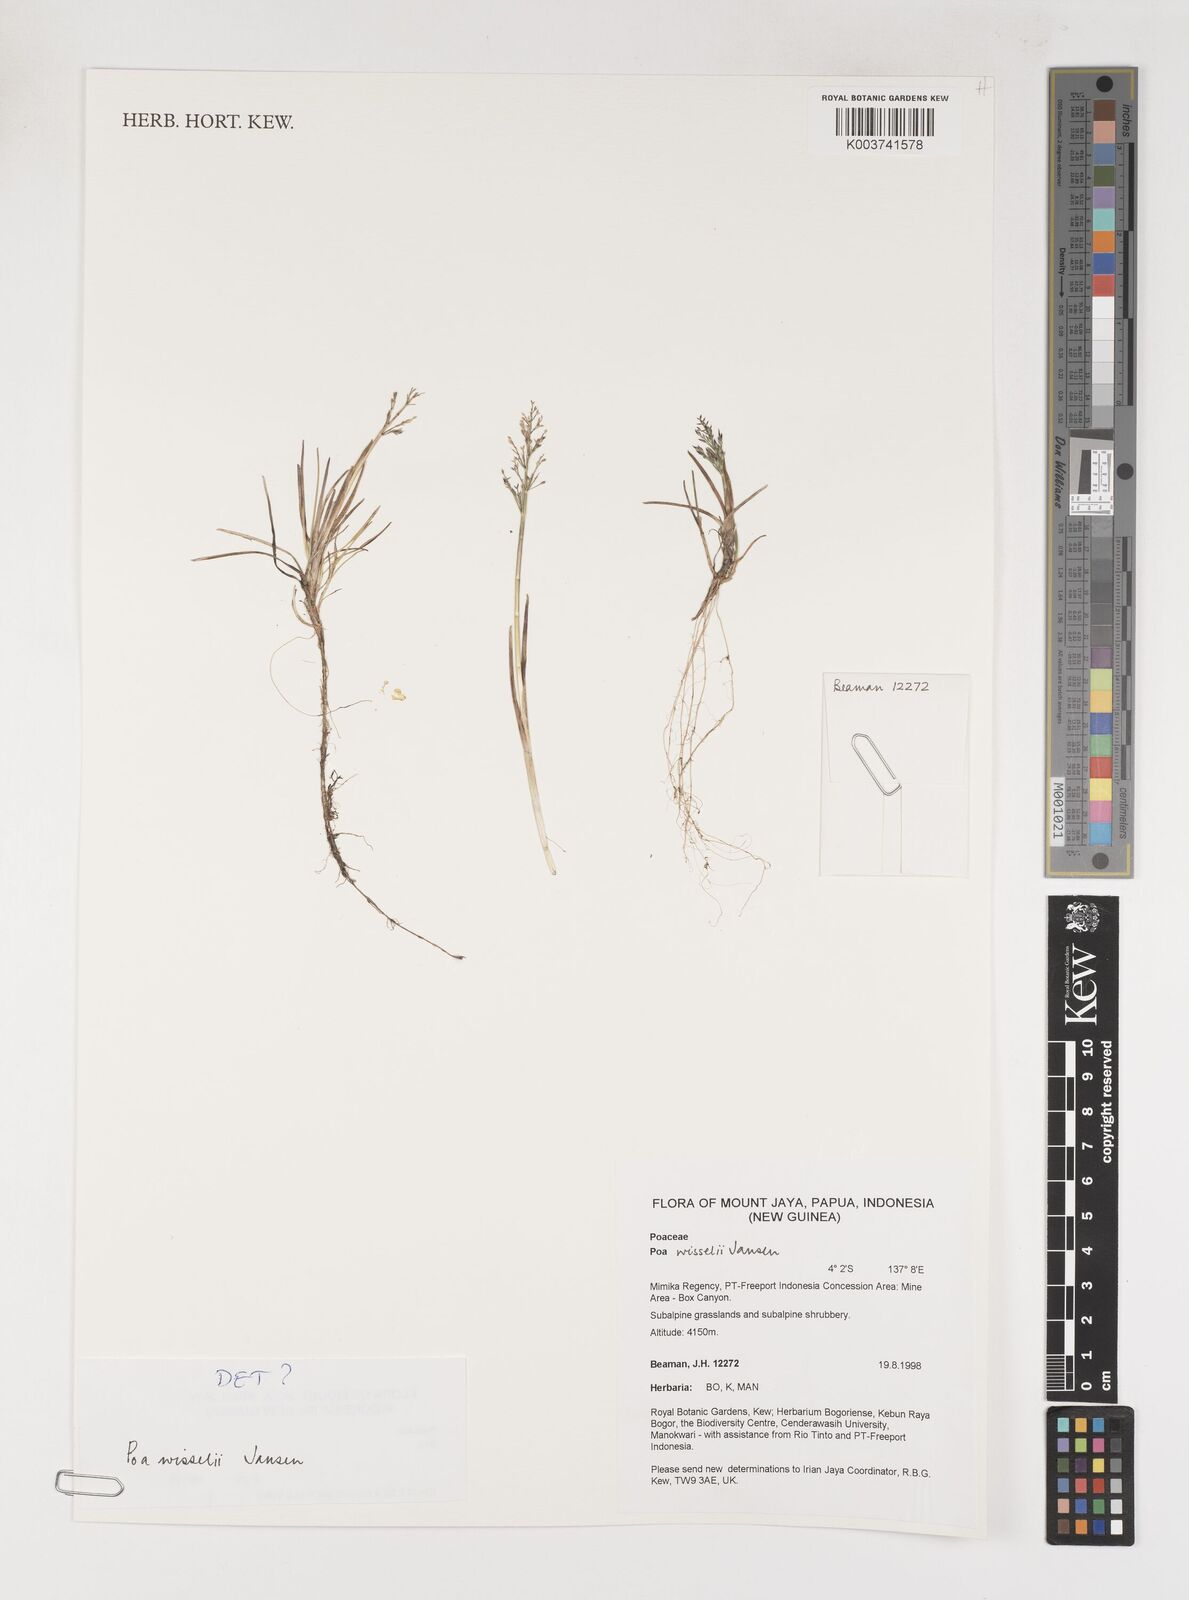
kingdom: Plantae
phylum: Tracheophyta
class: Liliopsida
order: Poales
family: Poaceae
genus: Poa
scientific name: Poa wisselii
